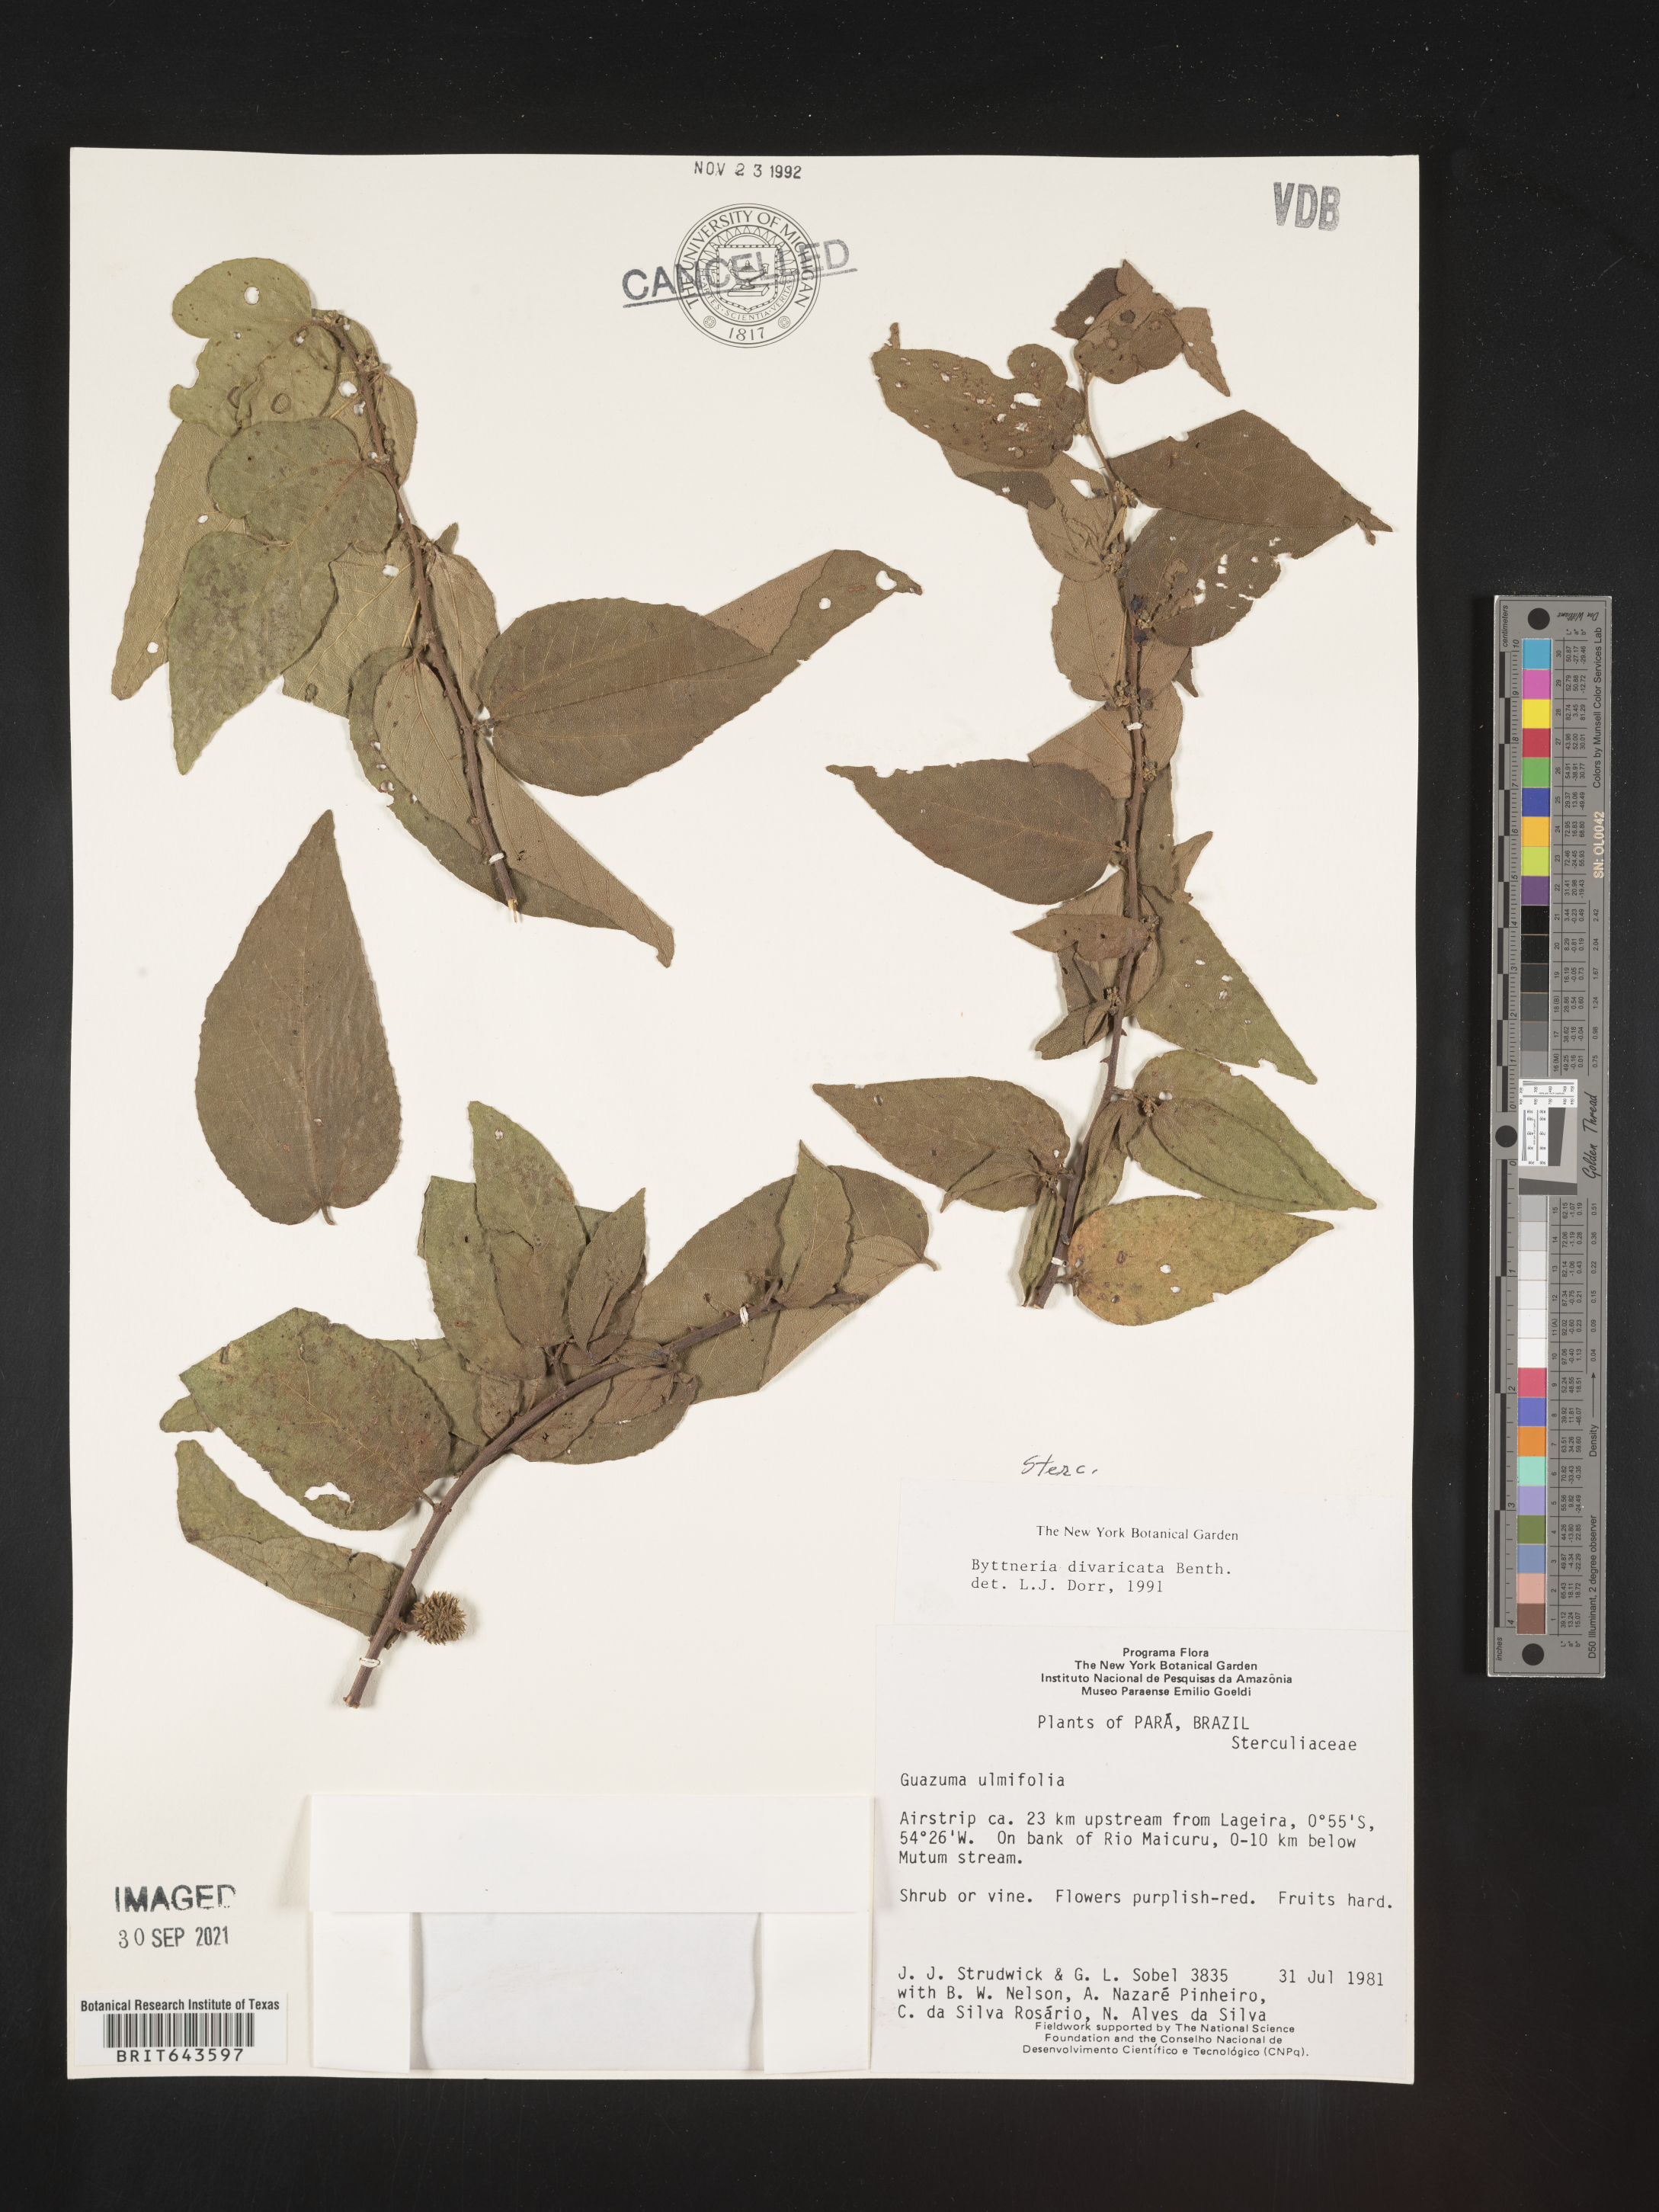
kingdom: Plantae
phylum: Tracheophyta
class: Magnoliopsida
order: Malvales
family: Malvaceae
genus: Byttneria
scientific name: Byttneria
